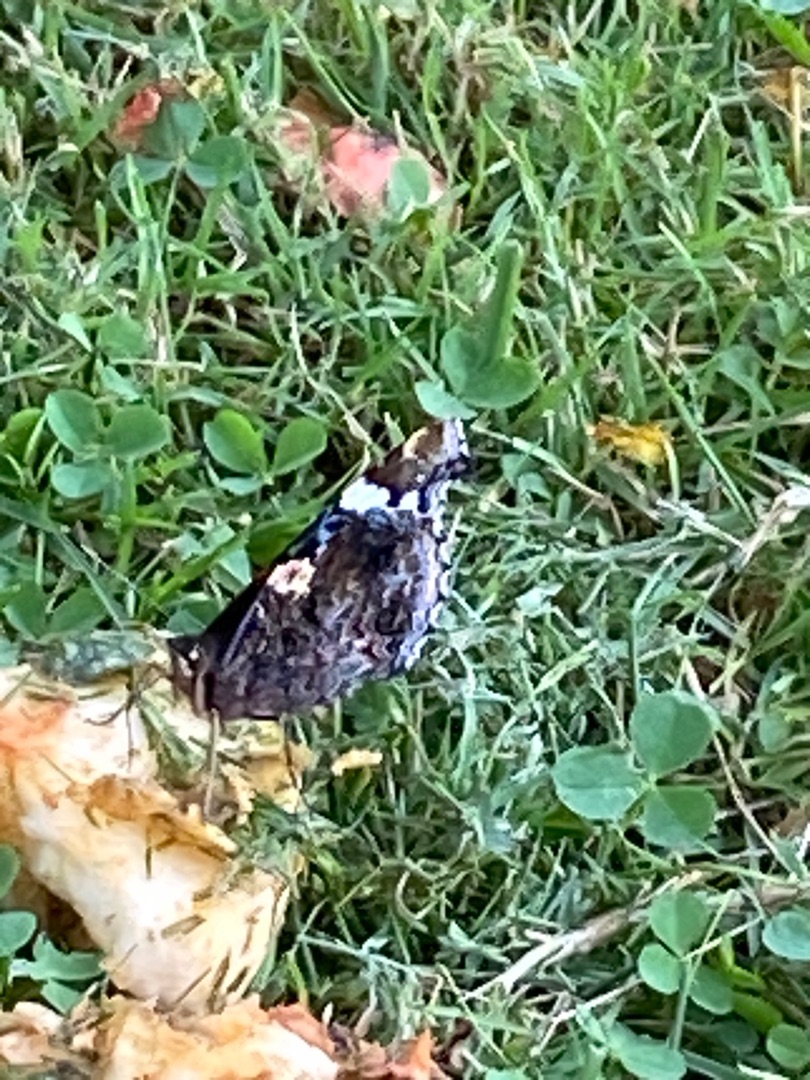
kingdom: Animalia
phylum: Arthropoda
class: Insecta
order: Lepidoptera
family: Nymphalidae
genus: Vanessa
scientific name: Vanessa atalanta
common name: Admiral
